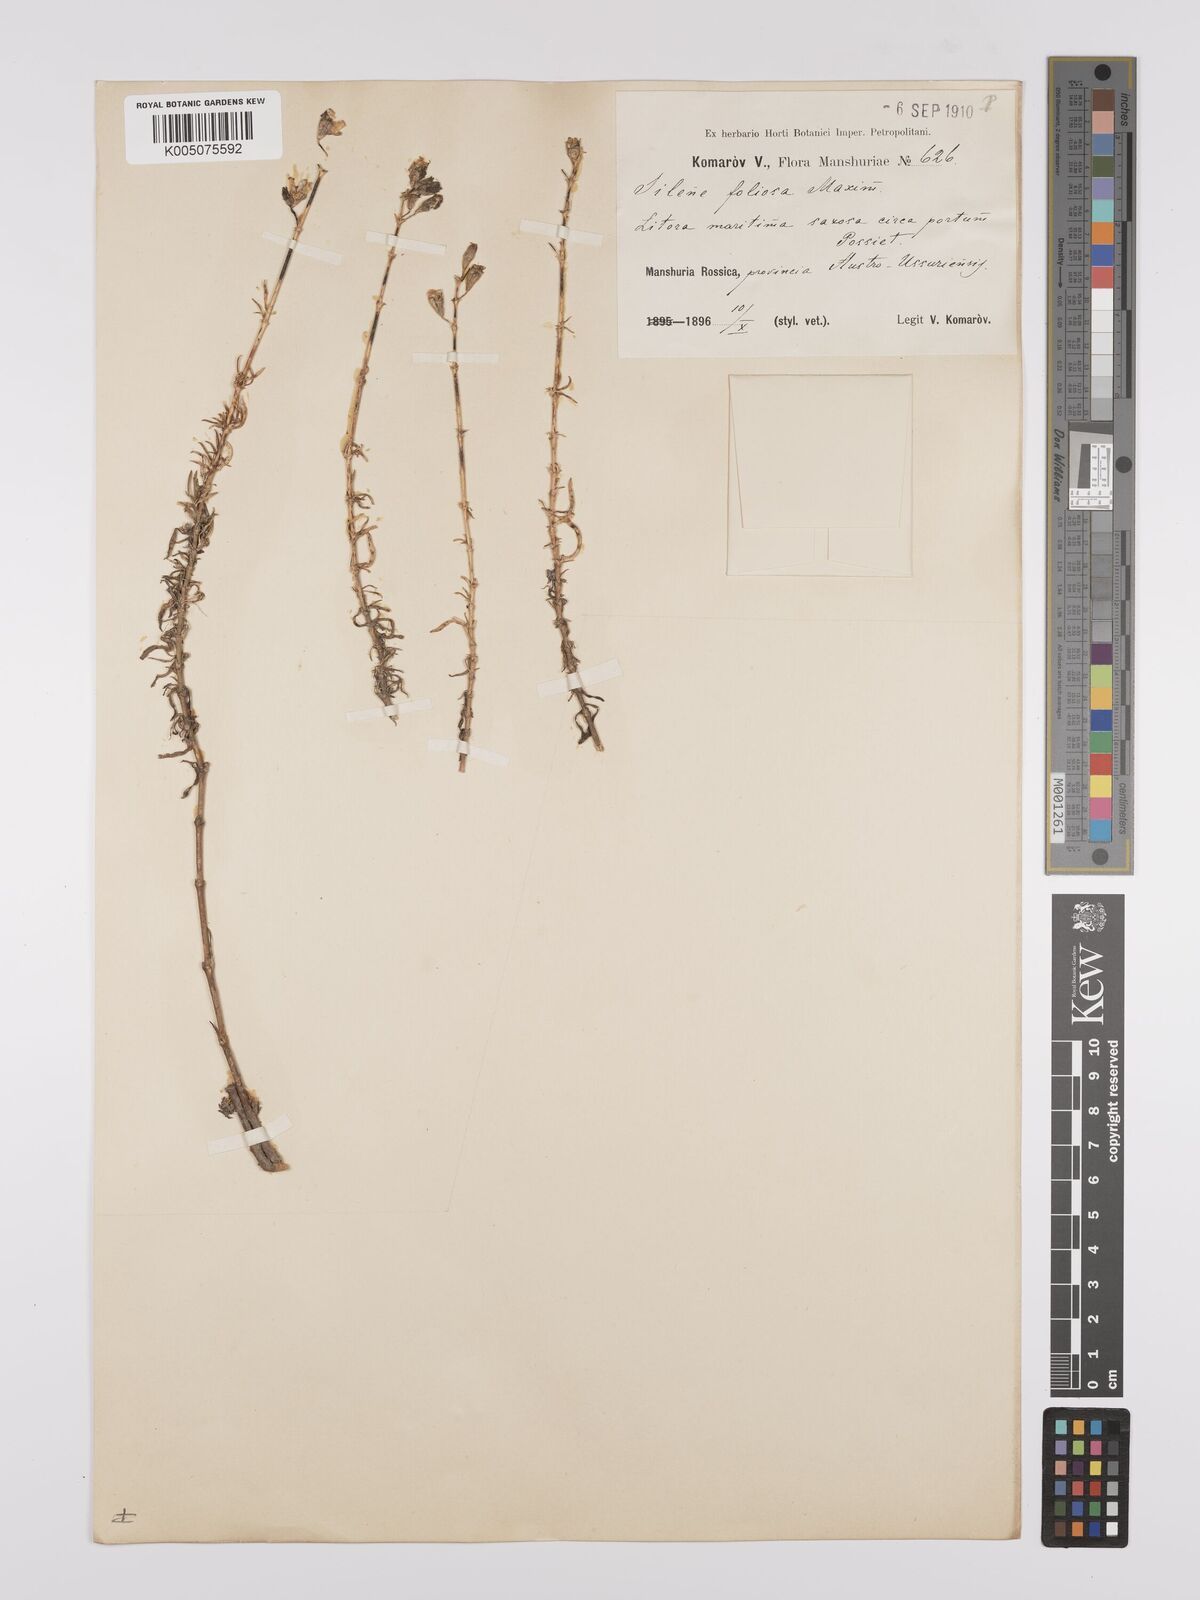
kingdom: Plantae
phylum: Tracheophyta
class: Magnoliopsida
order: Caryophyllales
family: Caryophyllaceae
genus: Silene
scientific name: Silene foliosa
